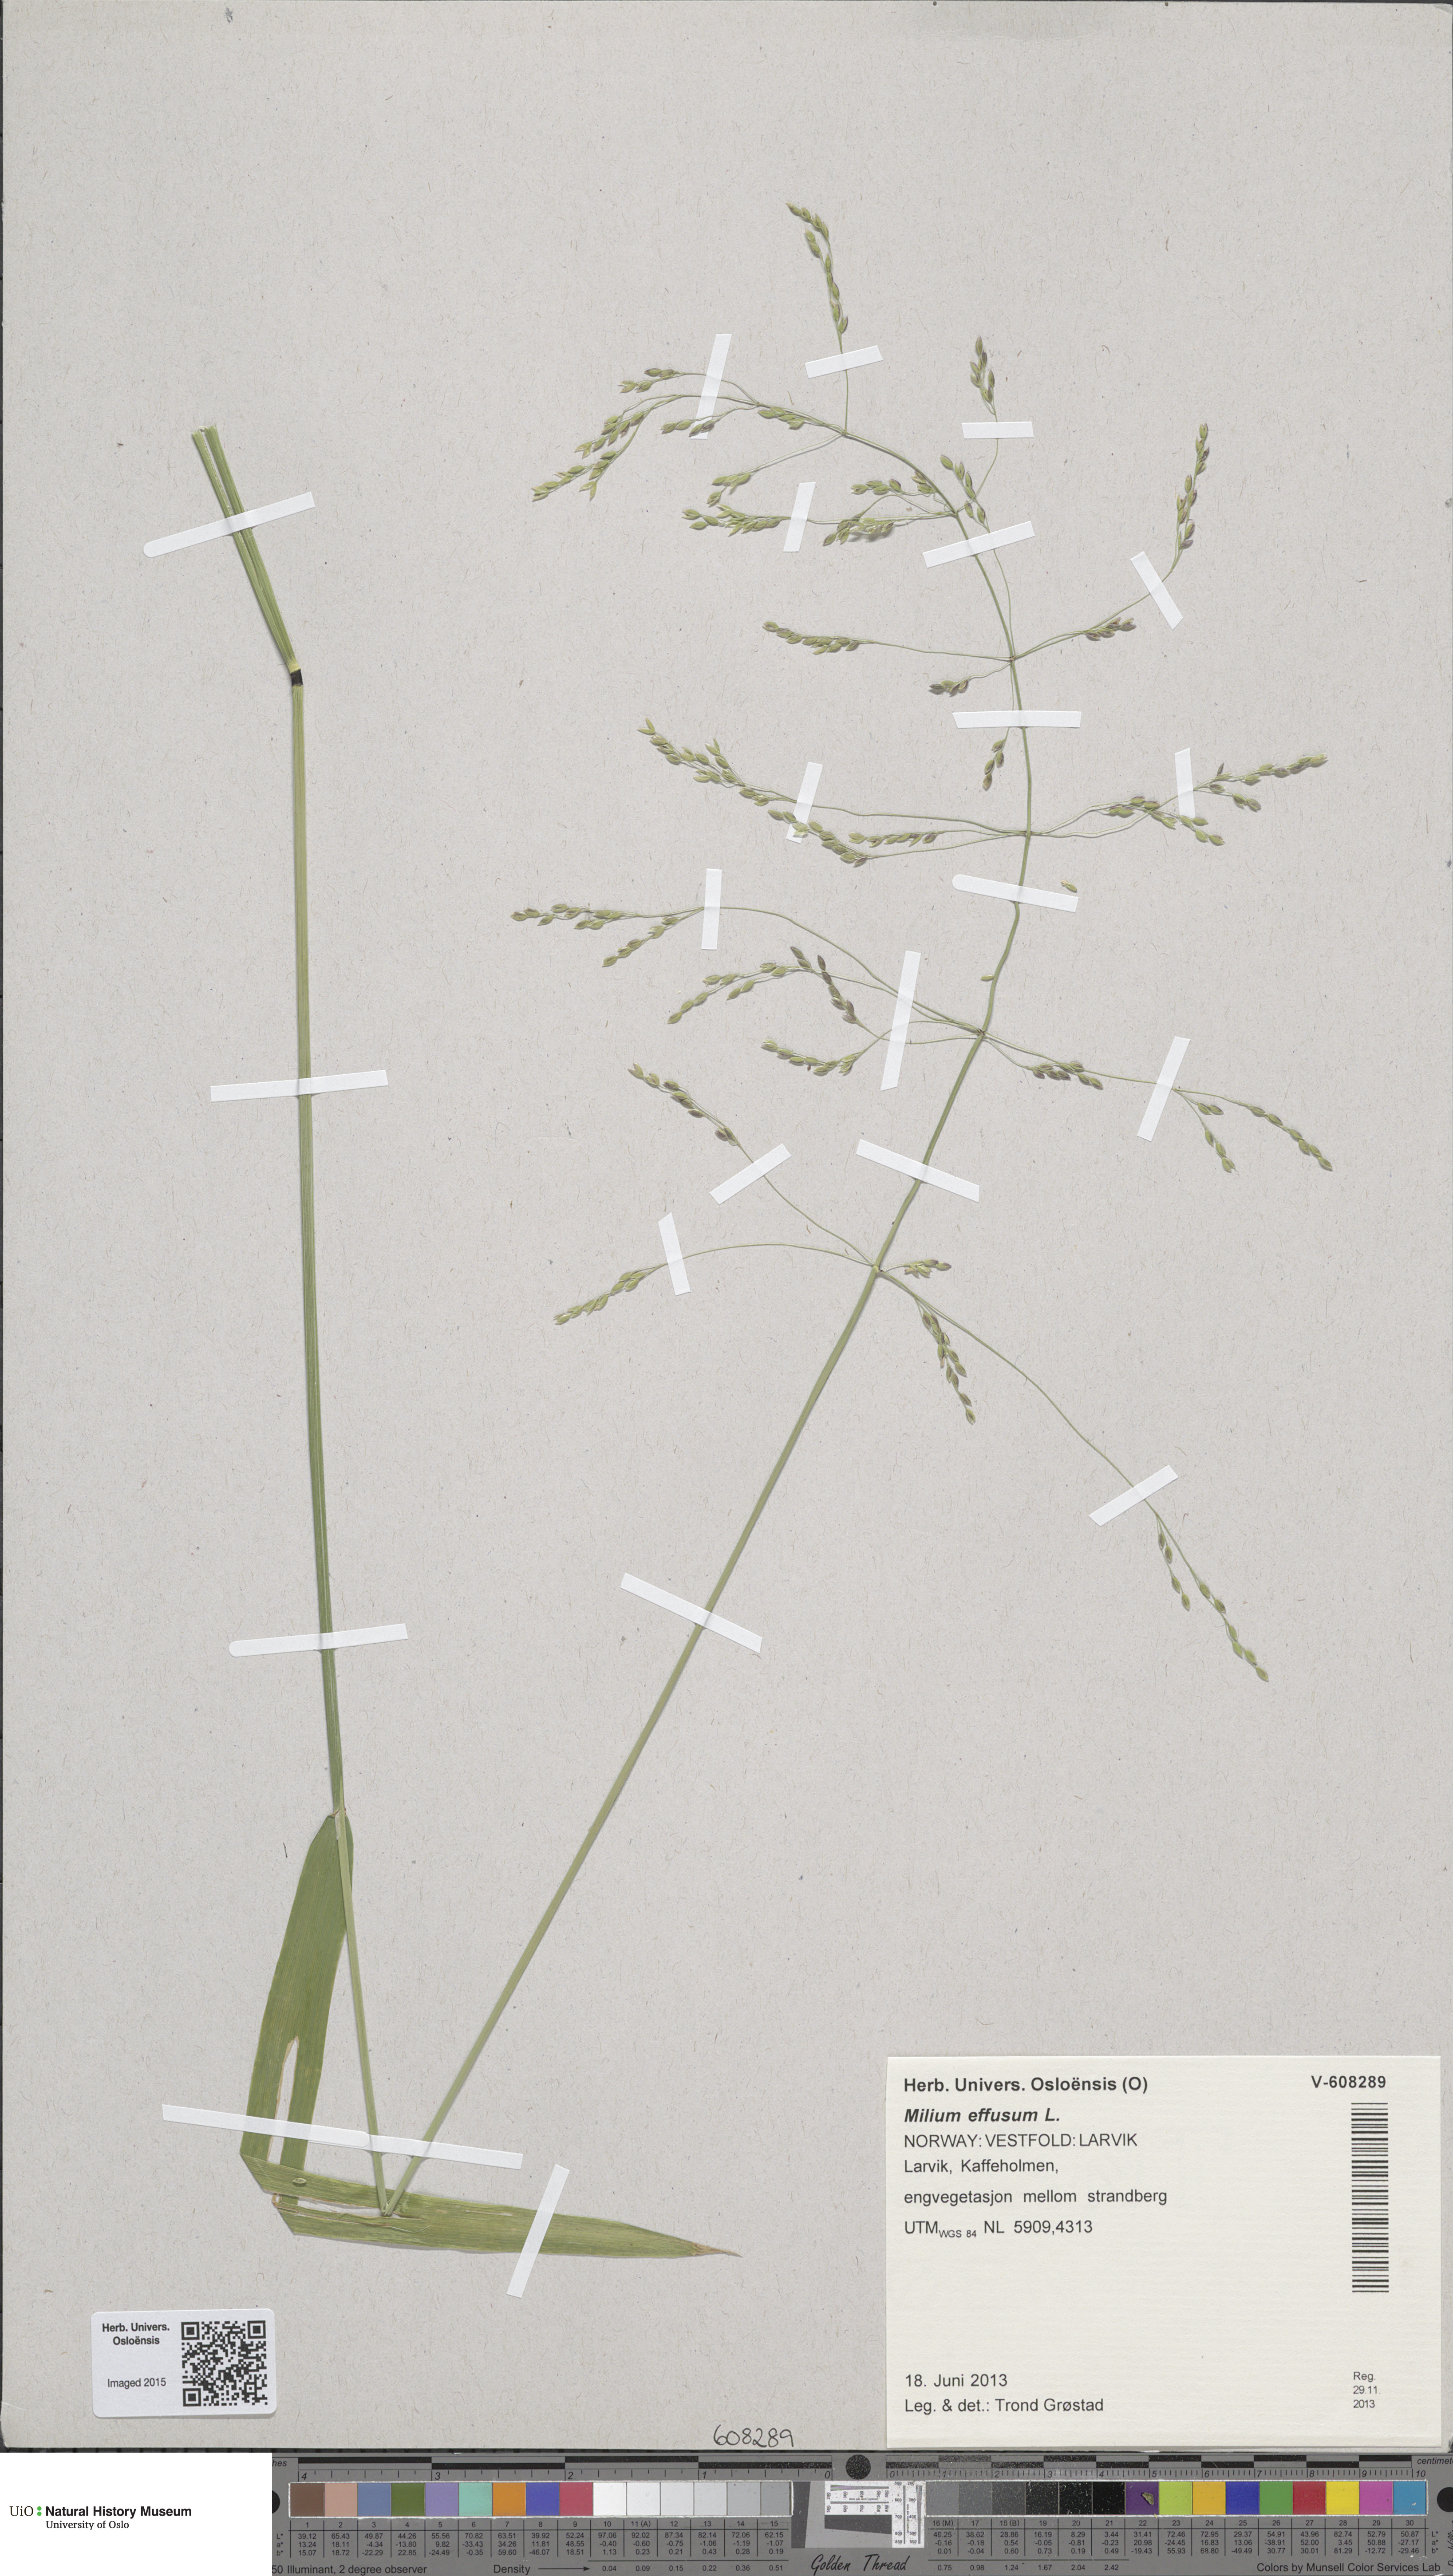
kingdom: Plantae
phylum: Tracheophyta
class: Liliopsida
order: Poales
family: Poaceae
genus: Milium
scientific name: Milium effusum
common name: Wood millet
